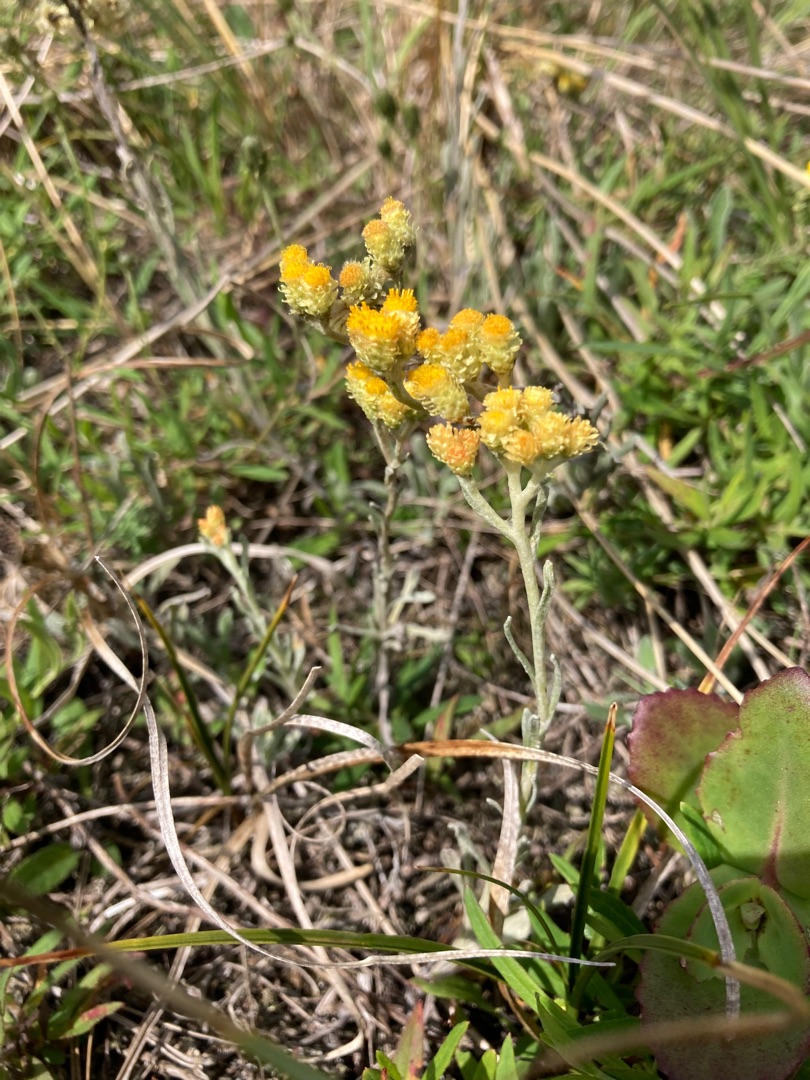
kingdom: Plantae
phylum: Tracheophyta
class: Magnoliopsida
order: Asterales
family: Asteraceae
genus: Helichrysum
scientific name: Helichrysum arenarium
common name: Gul evighedsblomst
